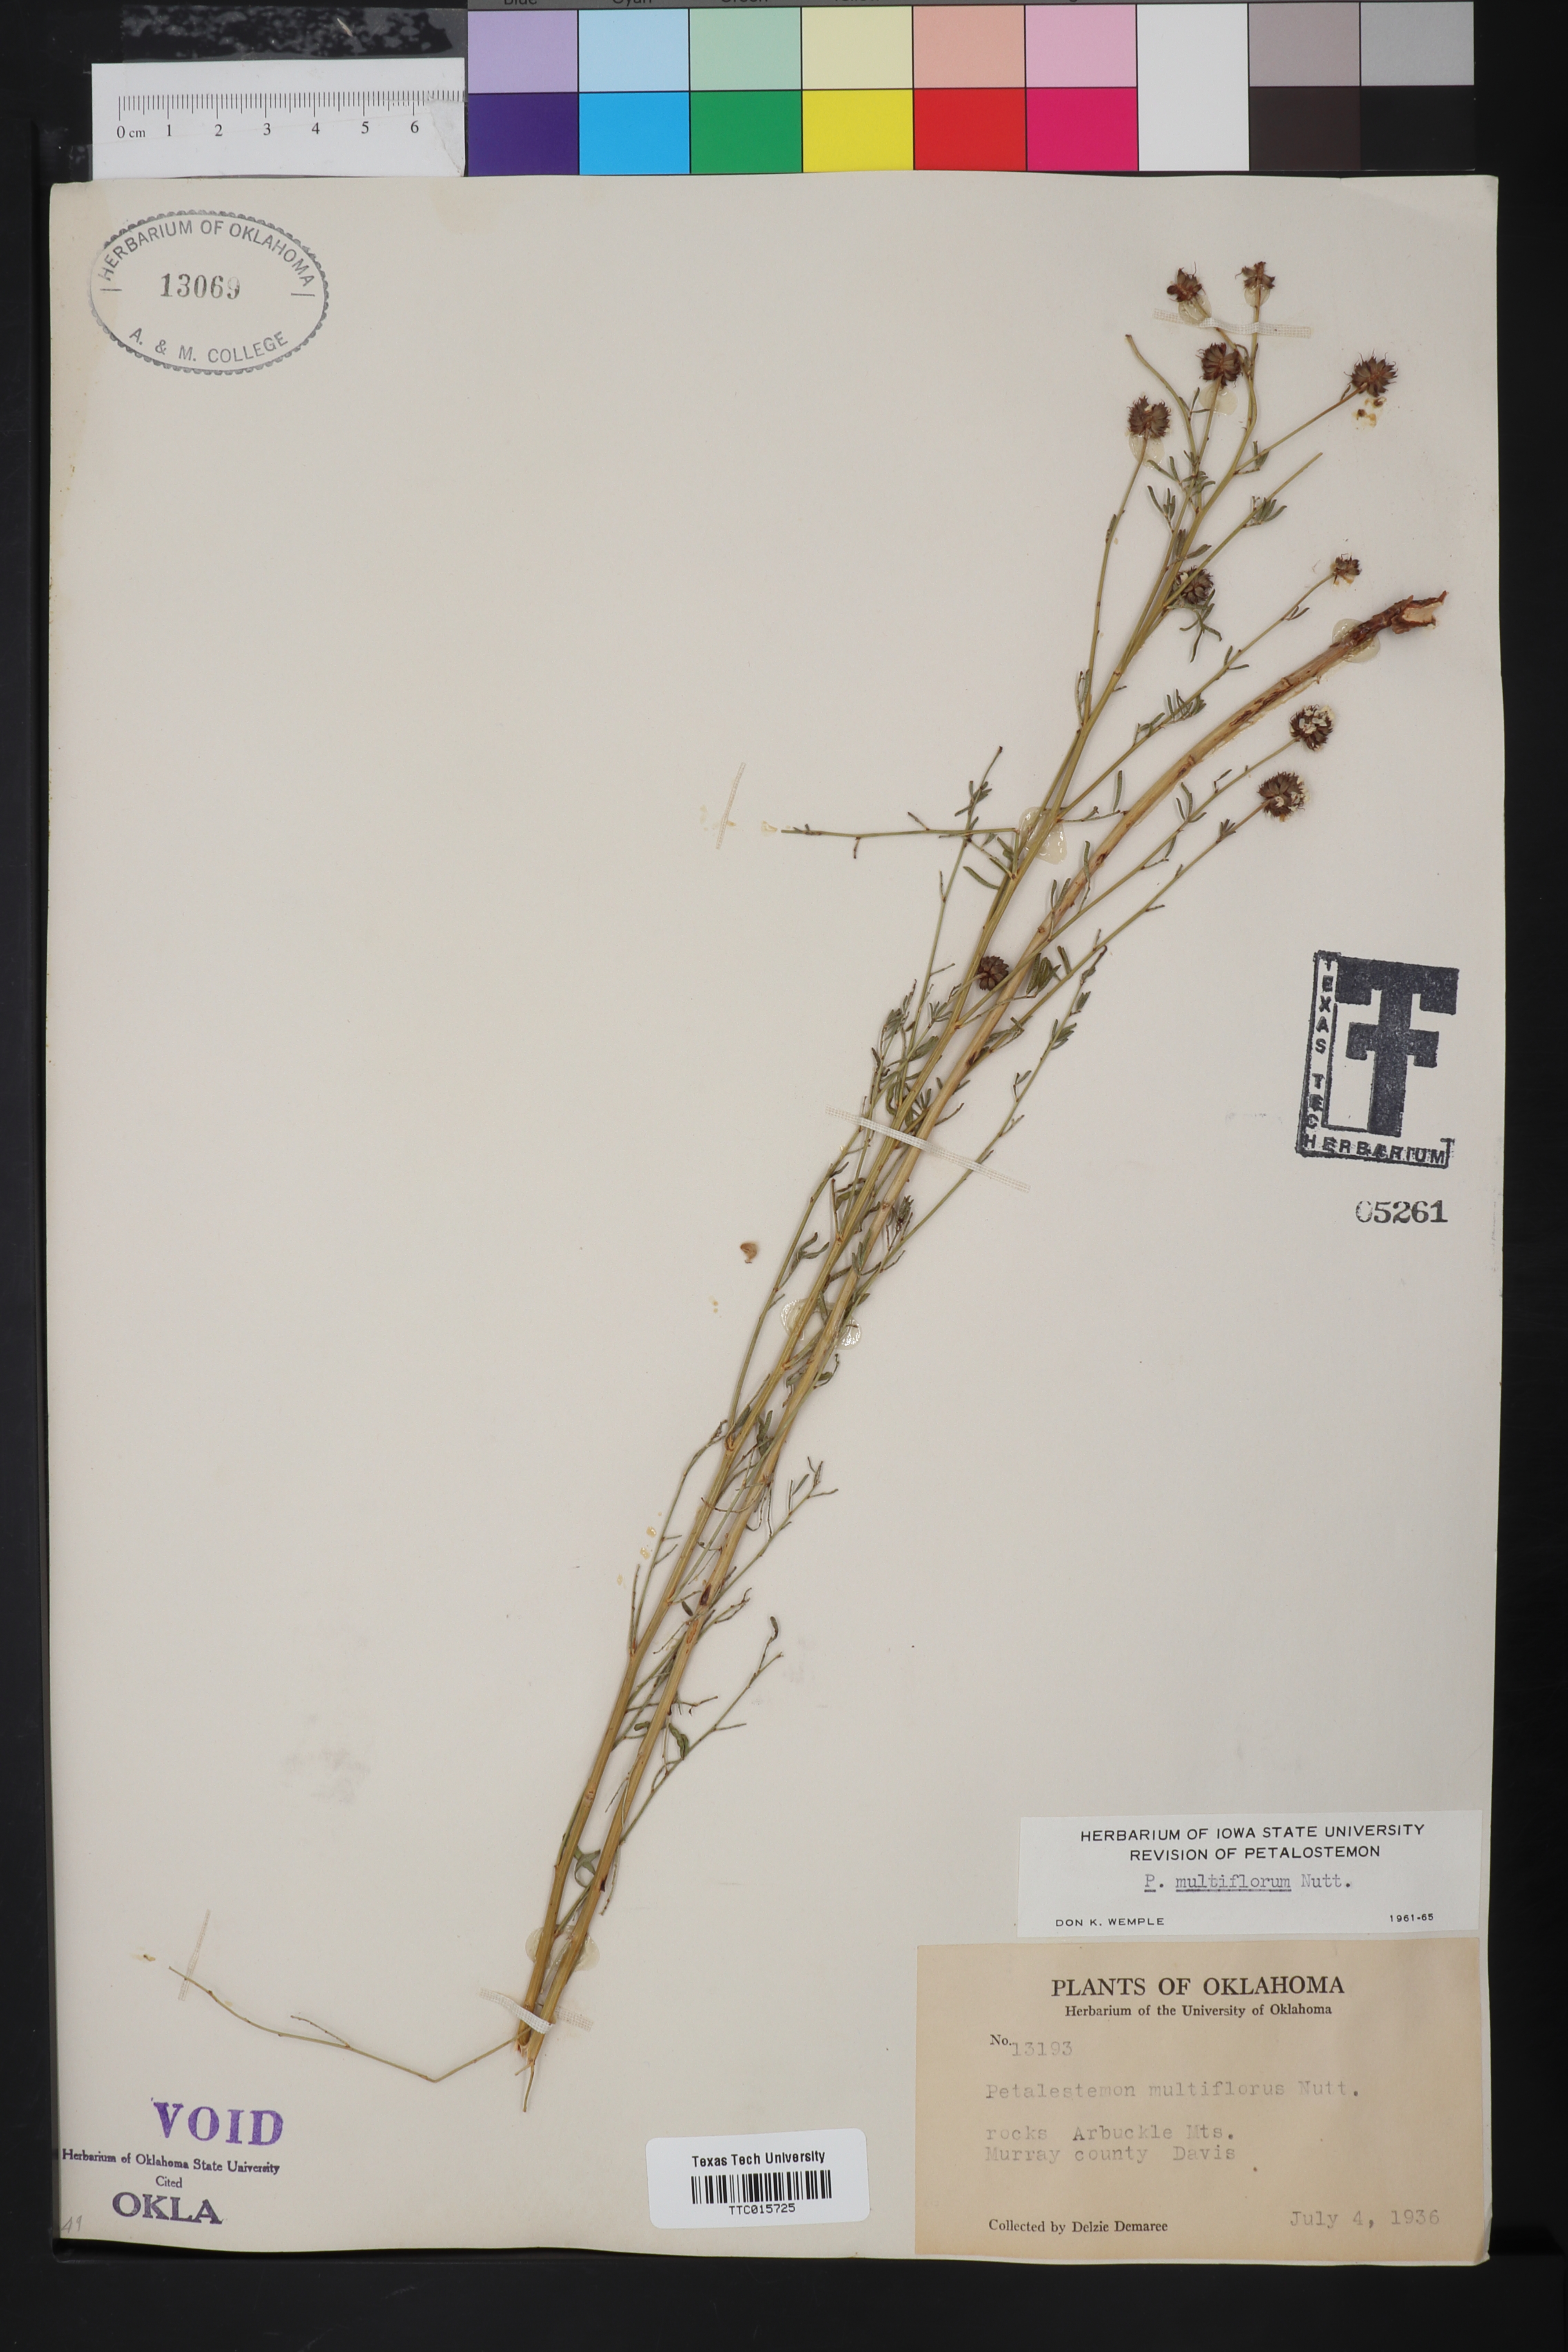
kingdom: Plantae
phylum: Tracheophyta
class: Magnoliopsida
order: Fabales
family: Fabaceae
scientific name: Fabaceae
